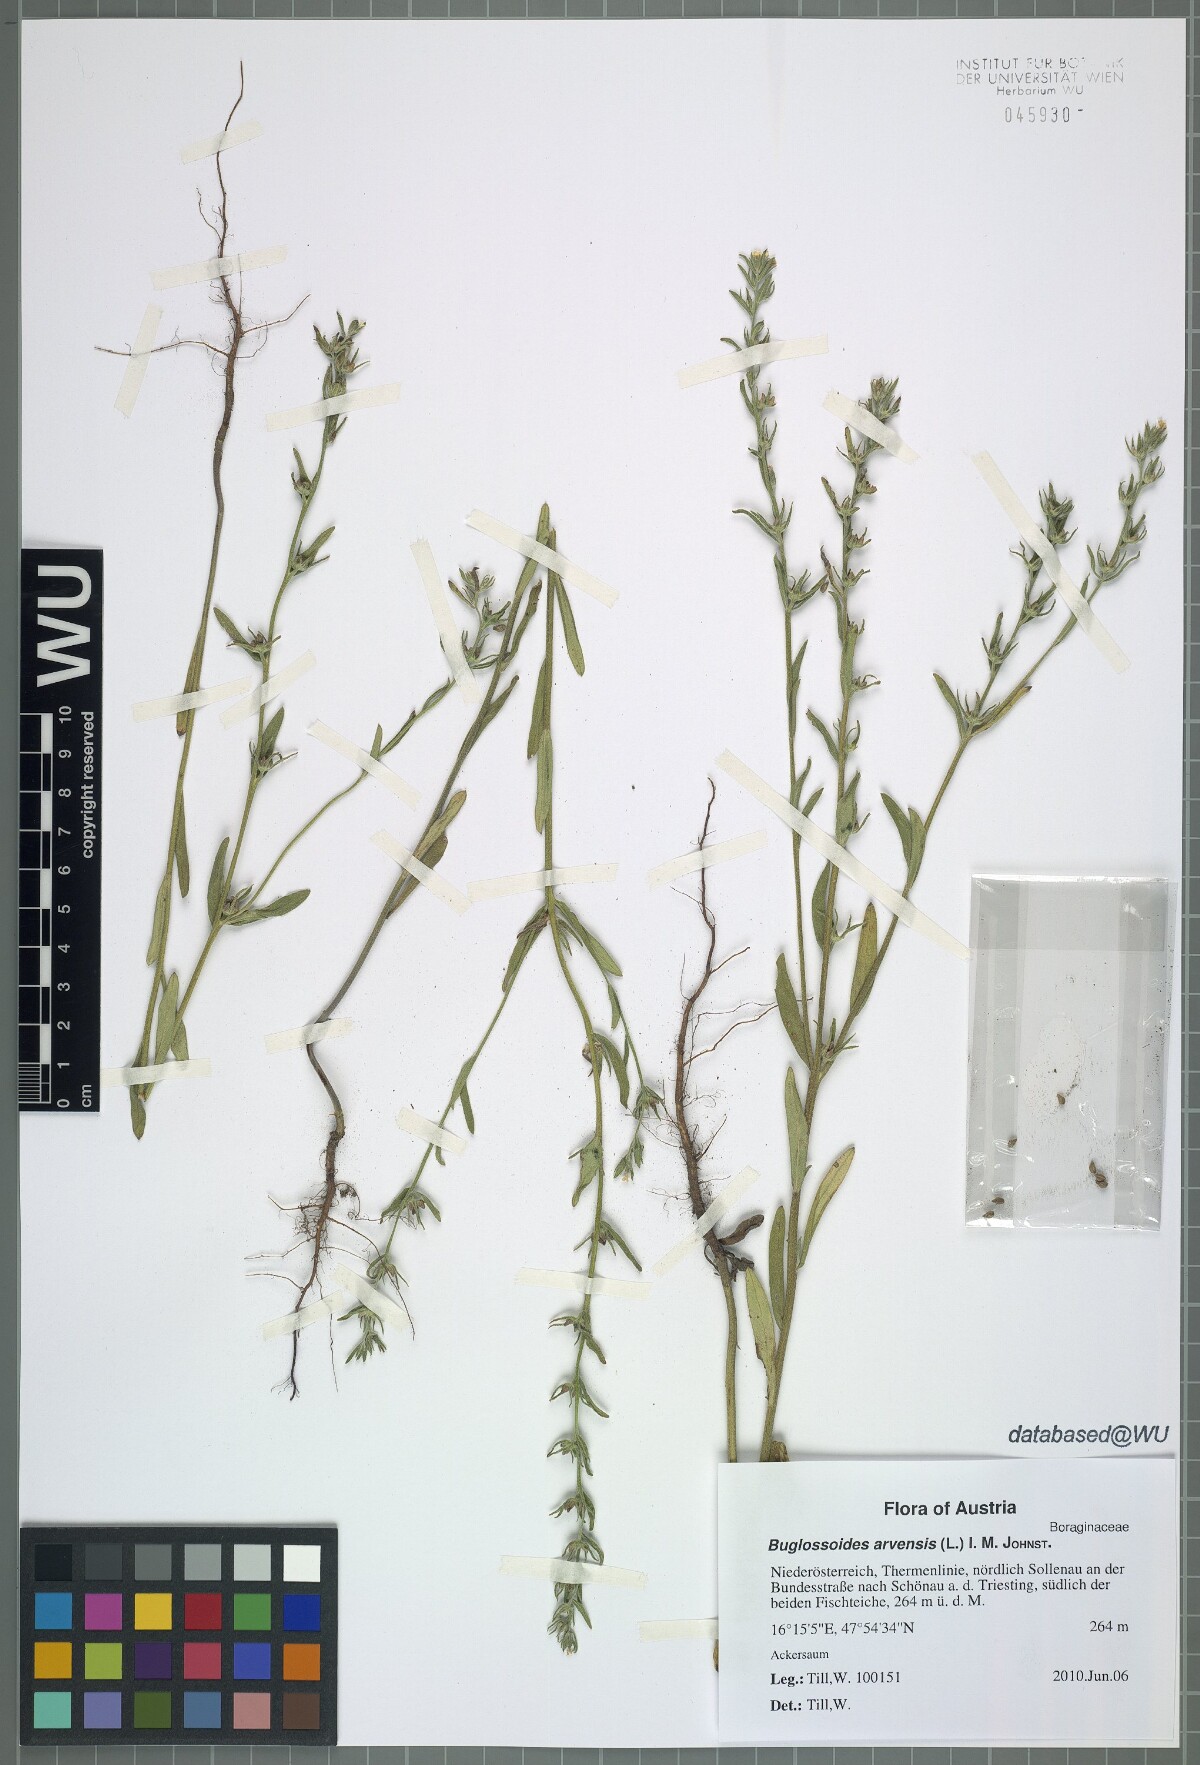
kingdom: Plantae
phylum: Tracheophyta
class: Magnoliopsida
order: Boraginales
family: Boraginaceae
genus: Buglossoides
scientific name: Buglossoides arvensis
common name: Corn gromwell
